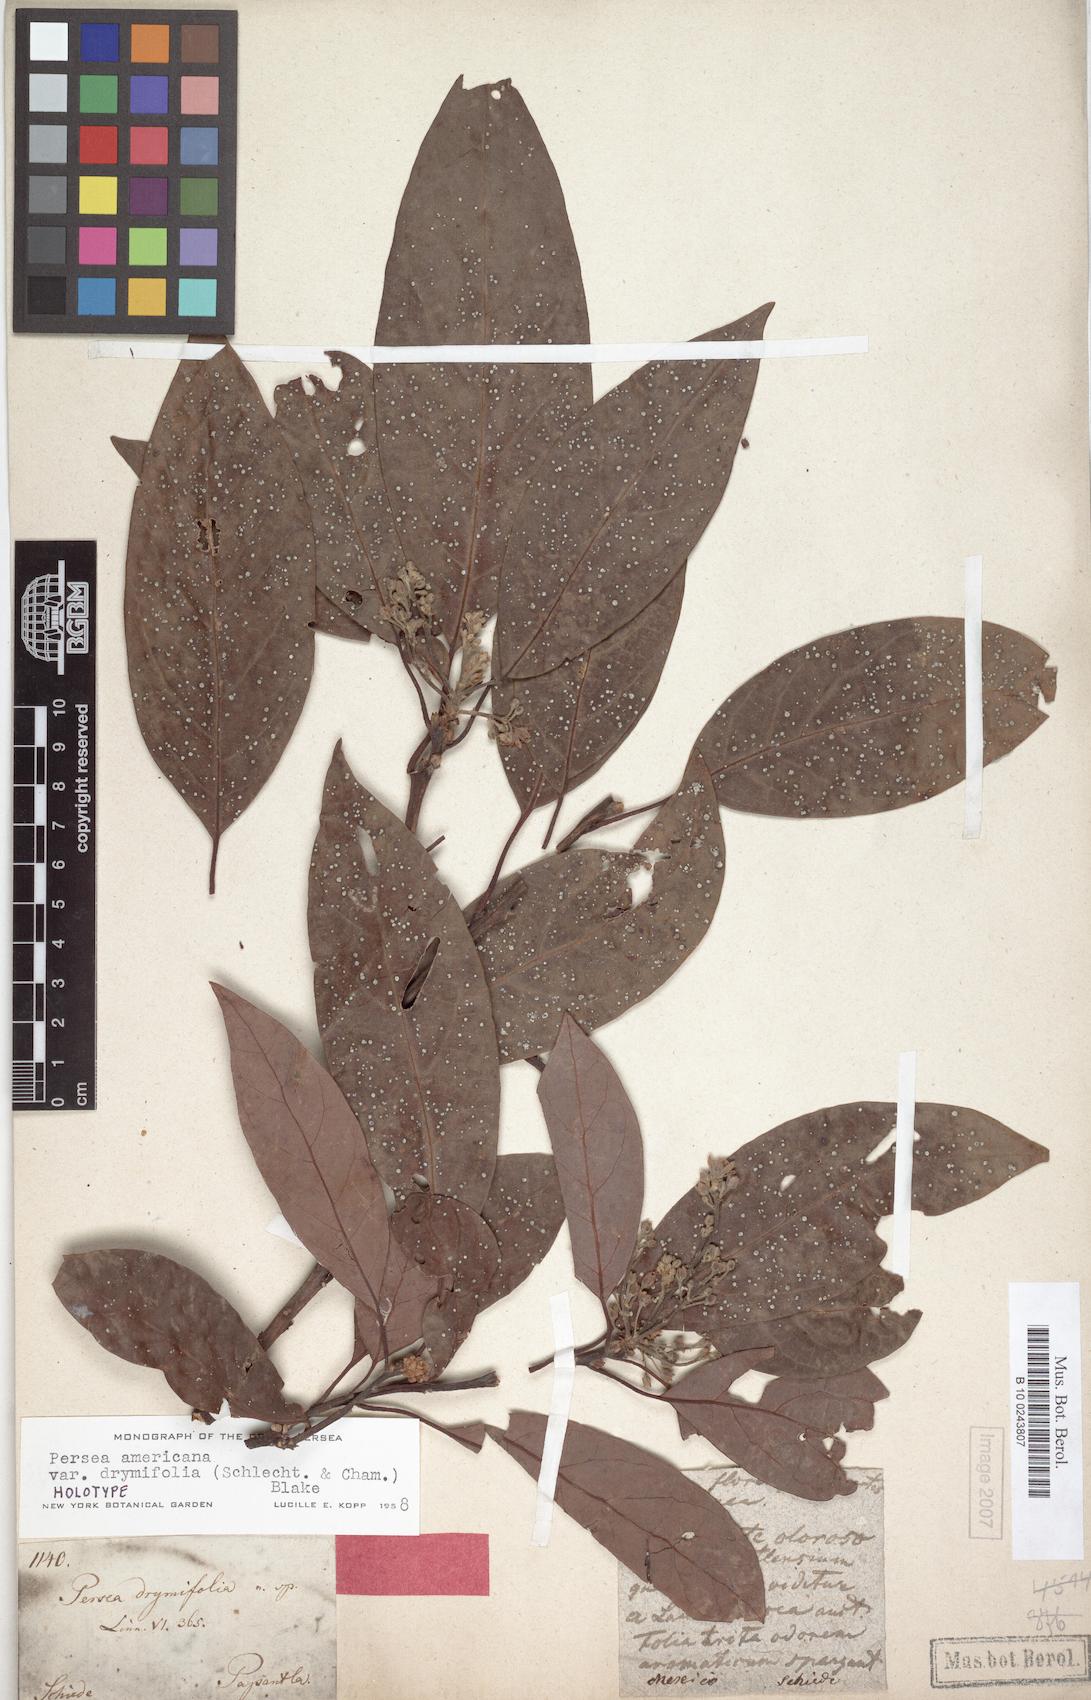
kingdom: Plantae
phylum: Tracheophyta
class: Magnoliopsida
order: Laurales
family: Lauraceae
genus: Persea
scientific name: Persea americana
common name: Avocado
